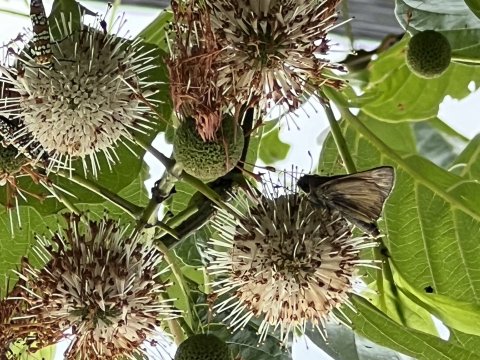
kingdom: Animalia
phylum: Arthropoda
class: Insecta
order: Lepidoptera
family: Hesperiidae
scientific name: Hesperiidae
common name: Skippers
